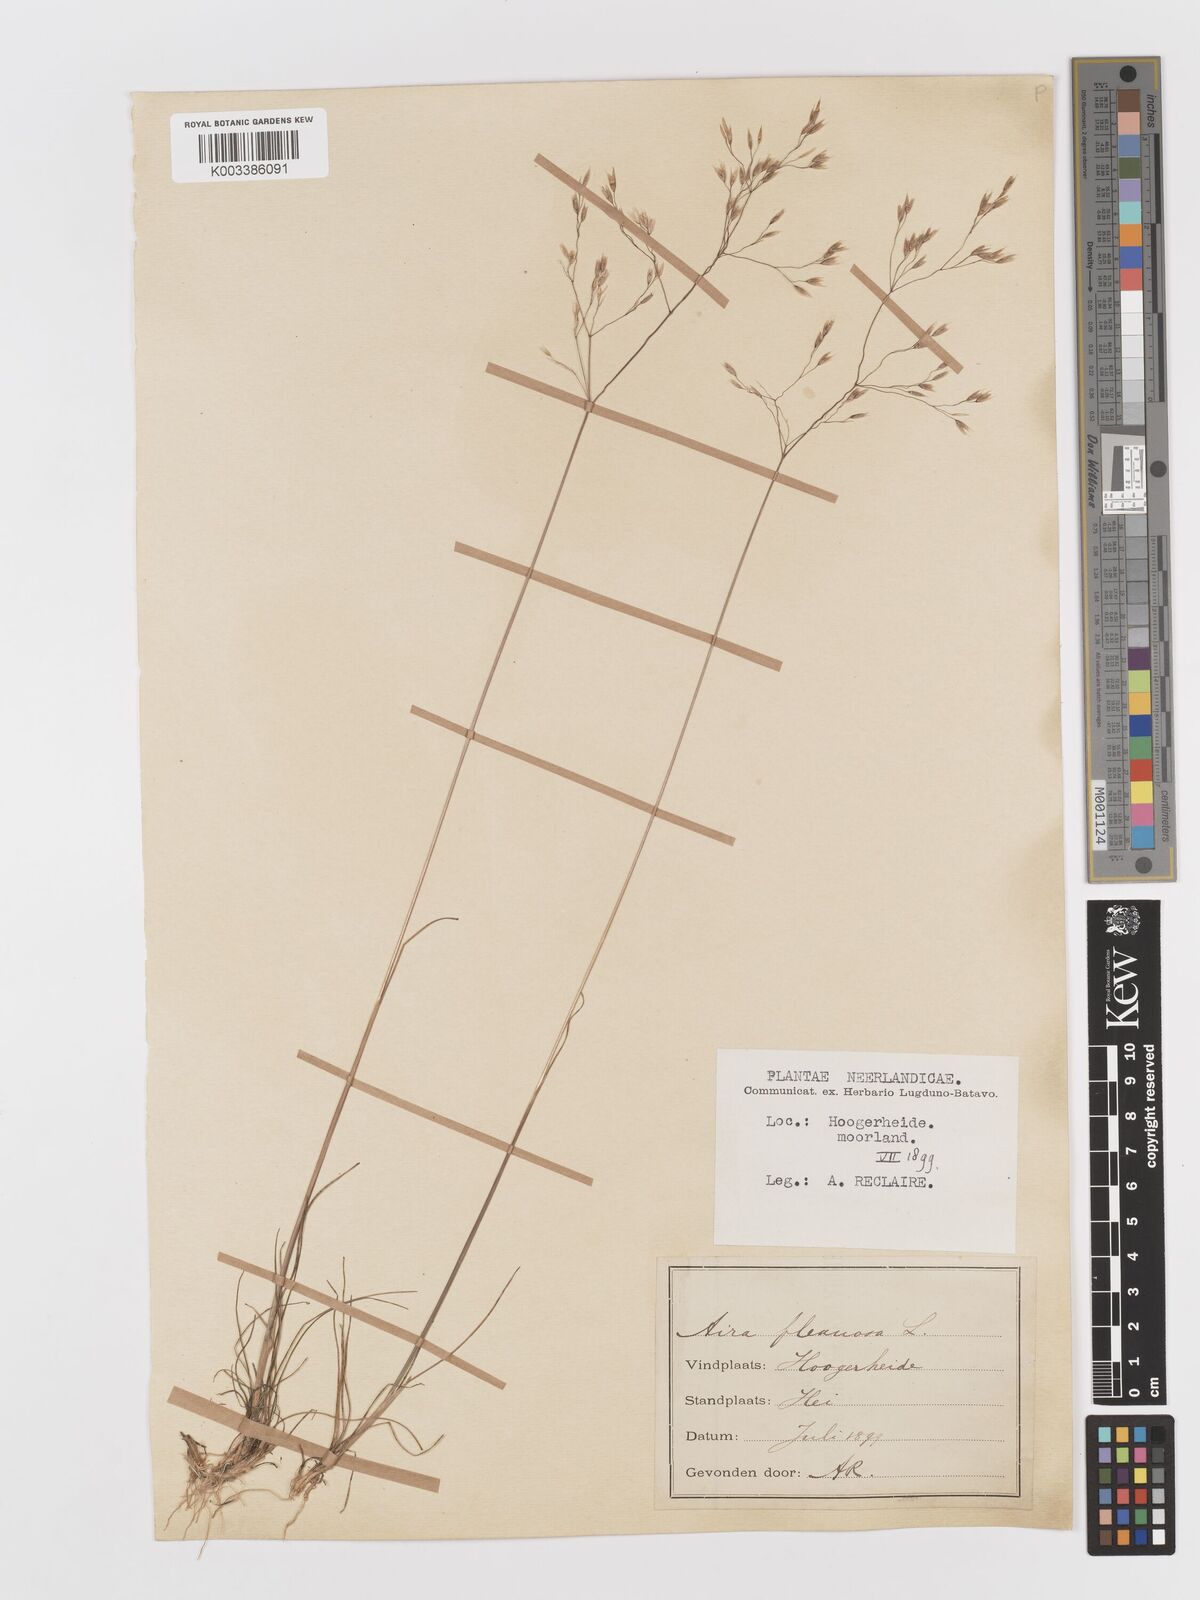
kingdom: Plantae
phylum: Tracheophyta
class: Liliopsida
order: Poales
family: Poaceae
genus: Avenella
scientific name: Avenella flexuosa
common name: Wavy hairgrass
